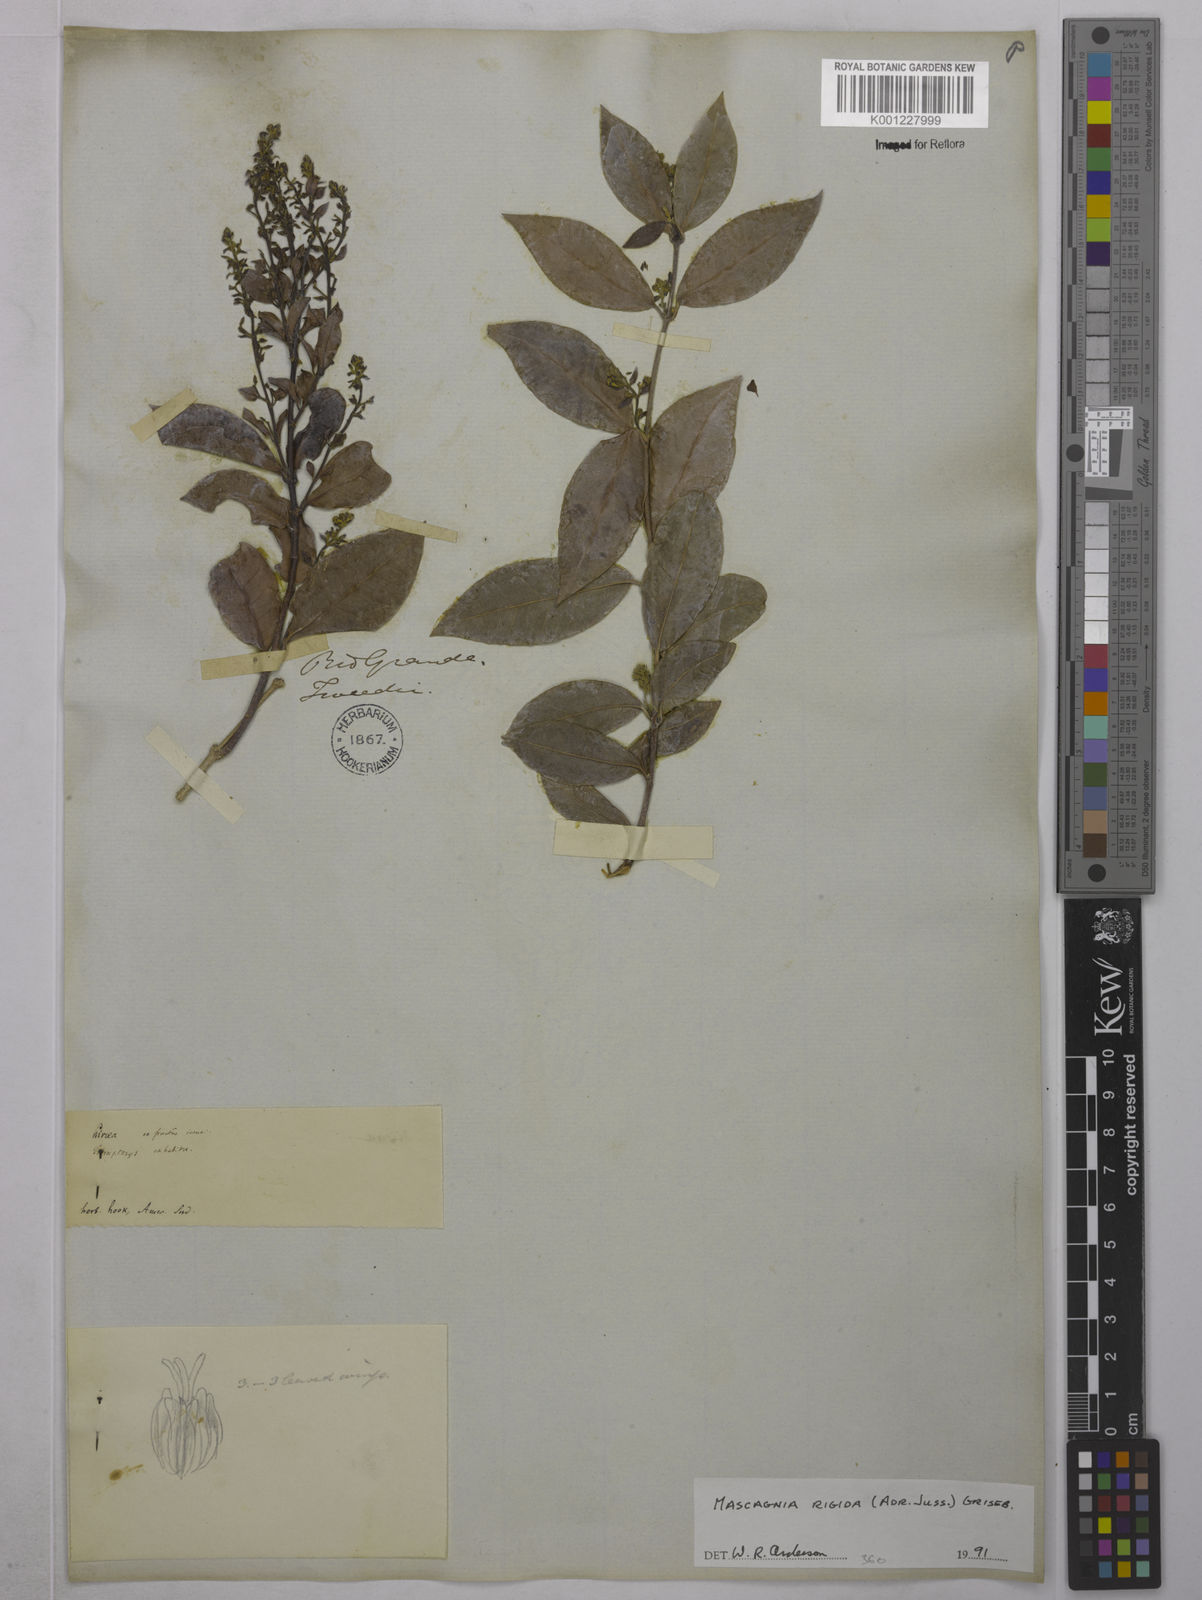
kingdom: Plantae
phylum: Tracheophyta
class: Magnoliopsida
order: Malpighiales
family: Malpighiaceae
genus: Amorimia
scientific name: Amorimia rigida
